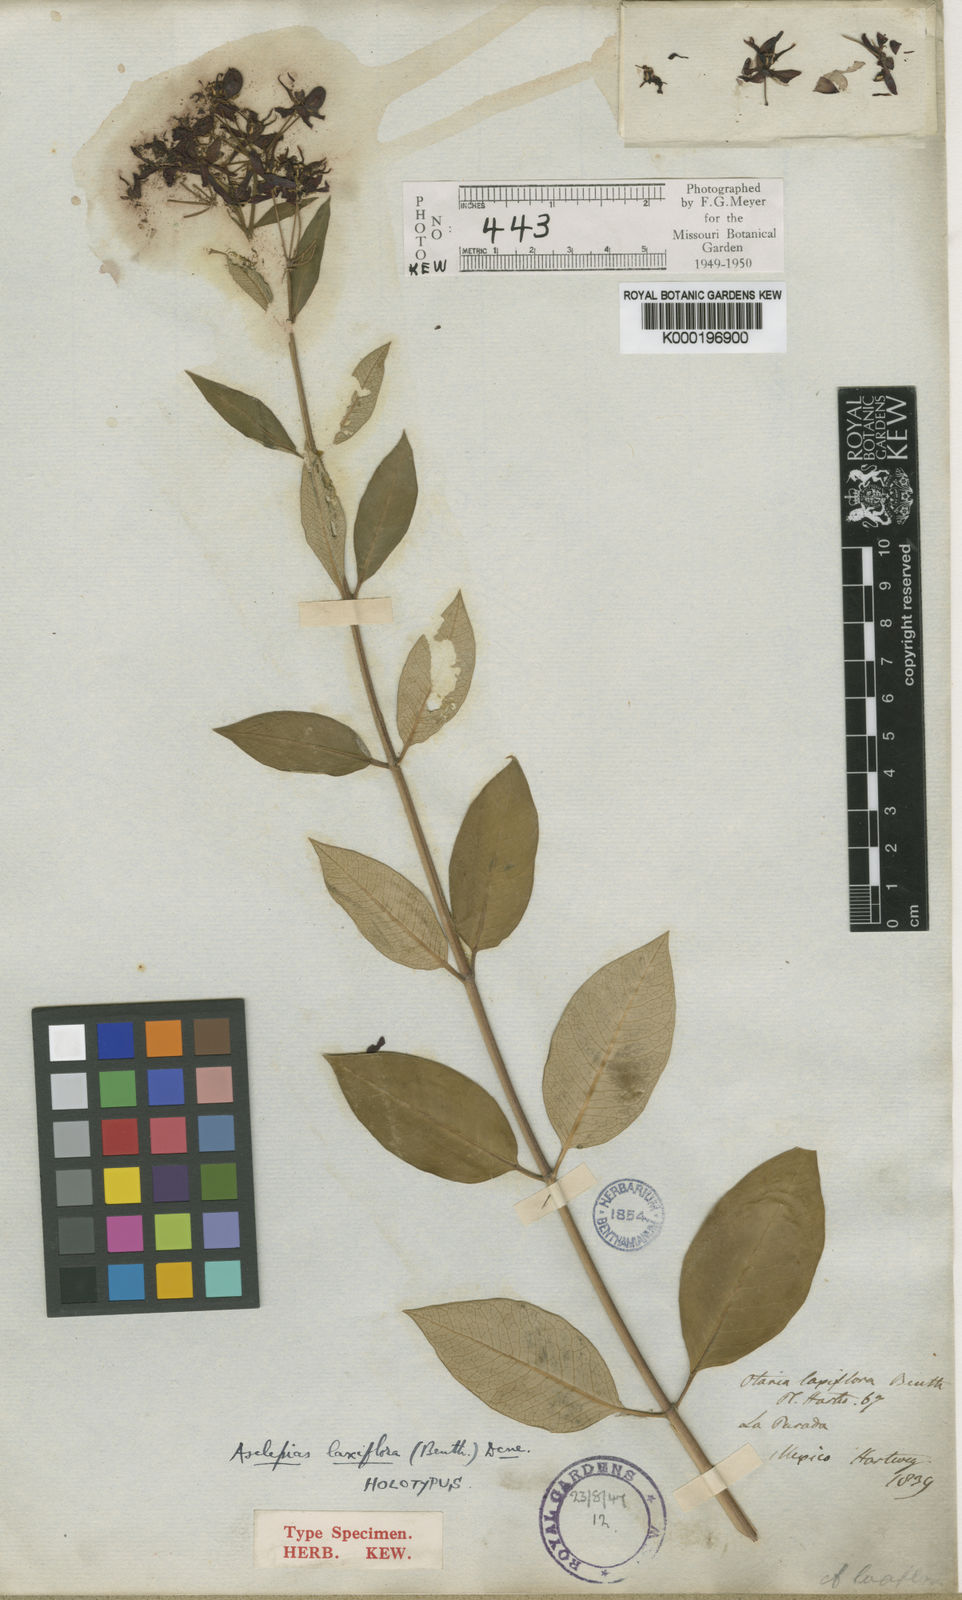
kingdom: Plantae
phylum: Tracheophyta
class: Magnoliopsida
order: Gentianales
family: Apocynaceae
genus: Asclepias
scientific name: Asclepias melantha
